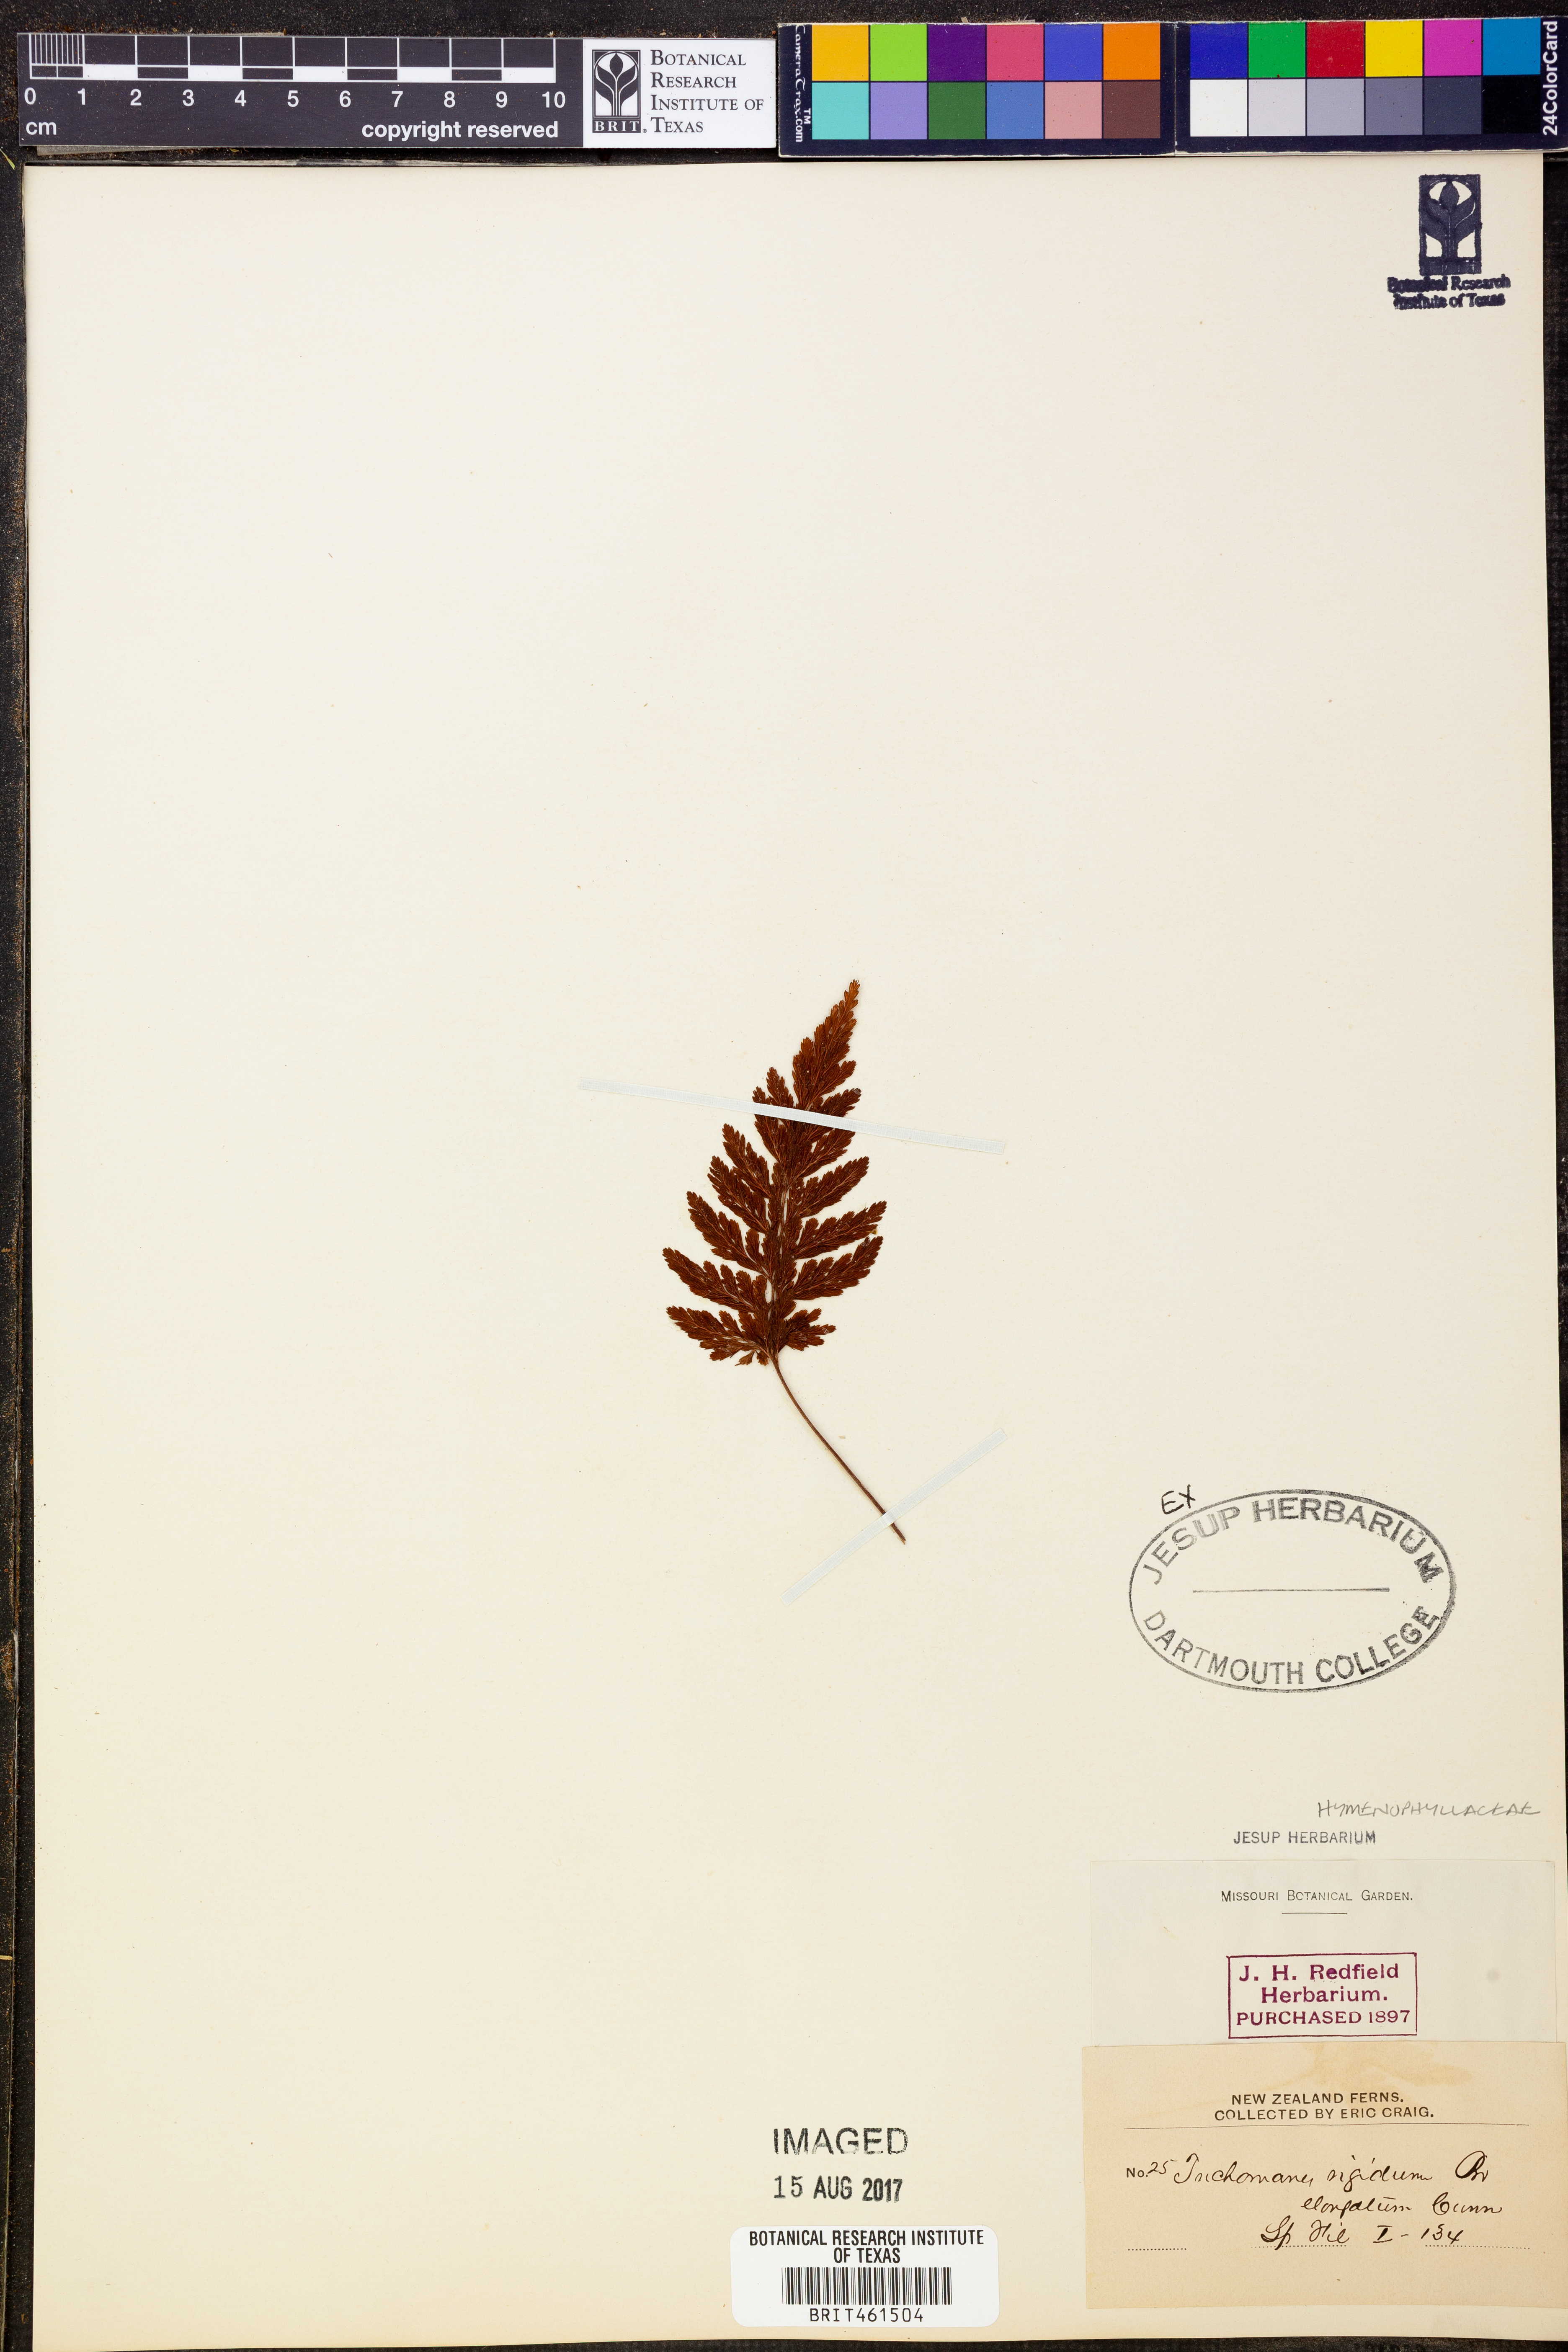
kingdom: Plantae
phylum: Tracheophyta
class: Polypodiopsida
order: Hymenophyllales
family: Hymenophyllaceae
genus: Abrodictyum
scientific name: Abrodictyum rigidum
